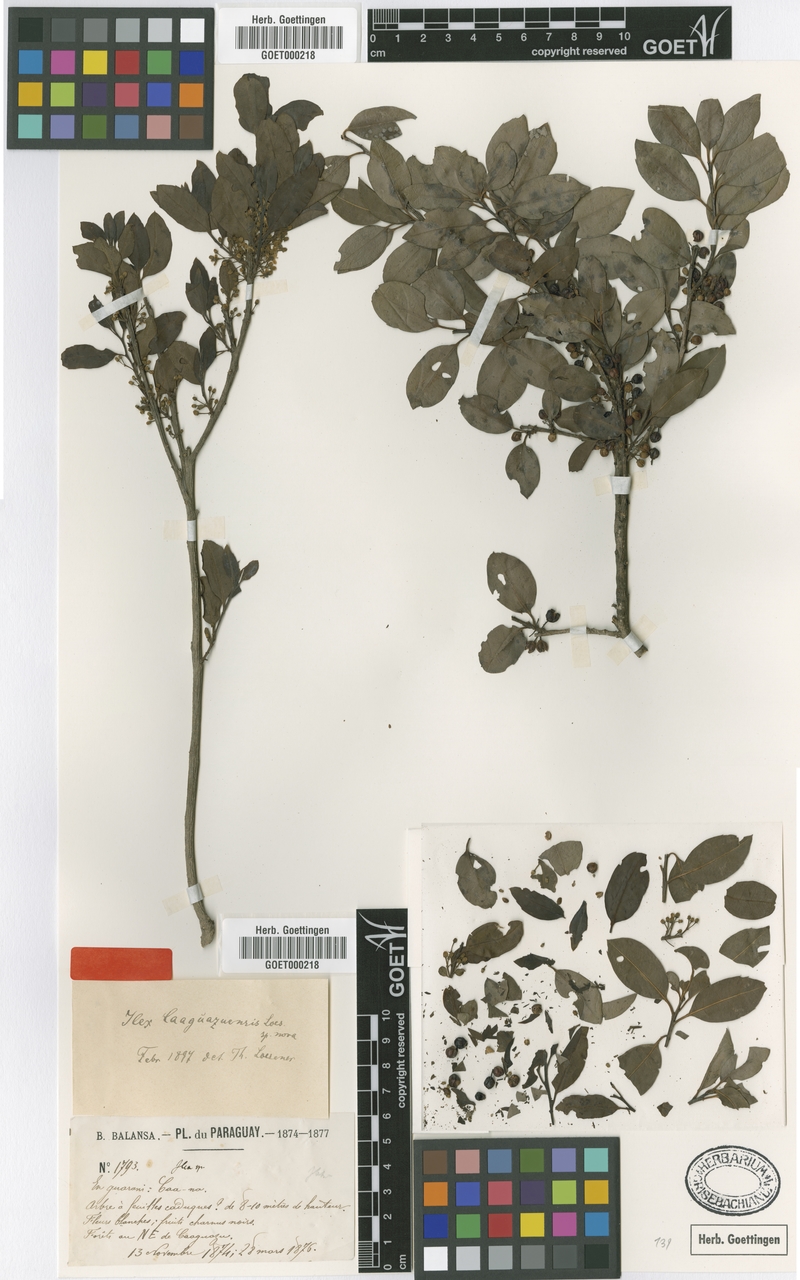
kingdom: Plantae
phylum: Tracheophyta
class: Magnoliopsida
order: Aquifoliales
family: Aquifoliaceae
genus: Ilex
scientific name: Ilex brevicuspis
